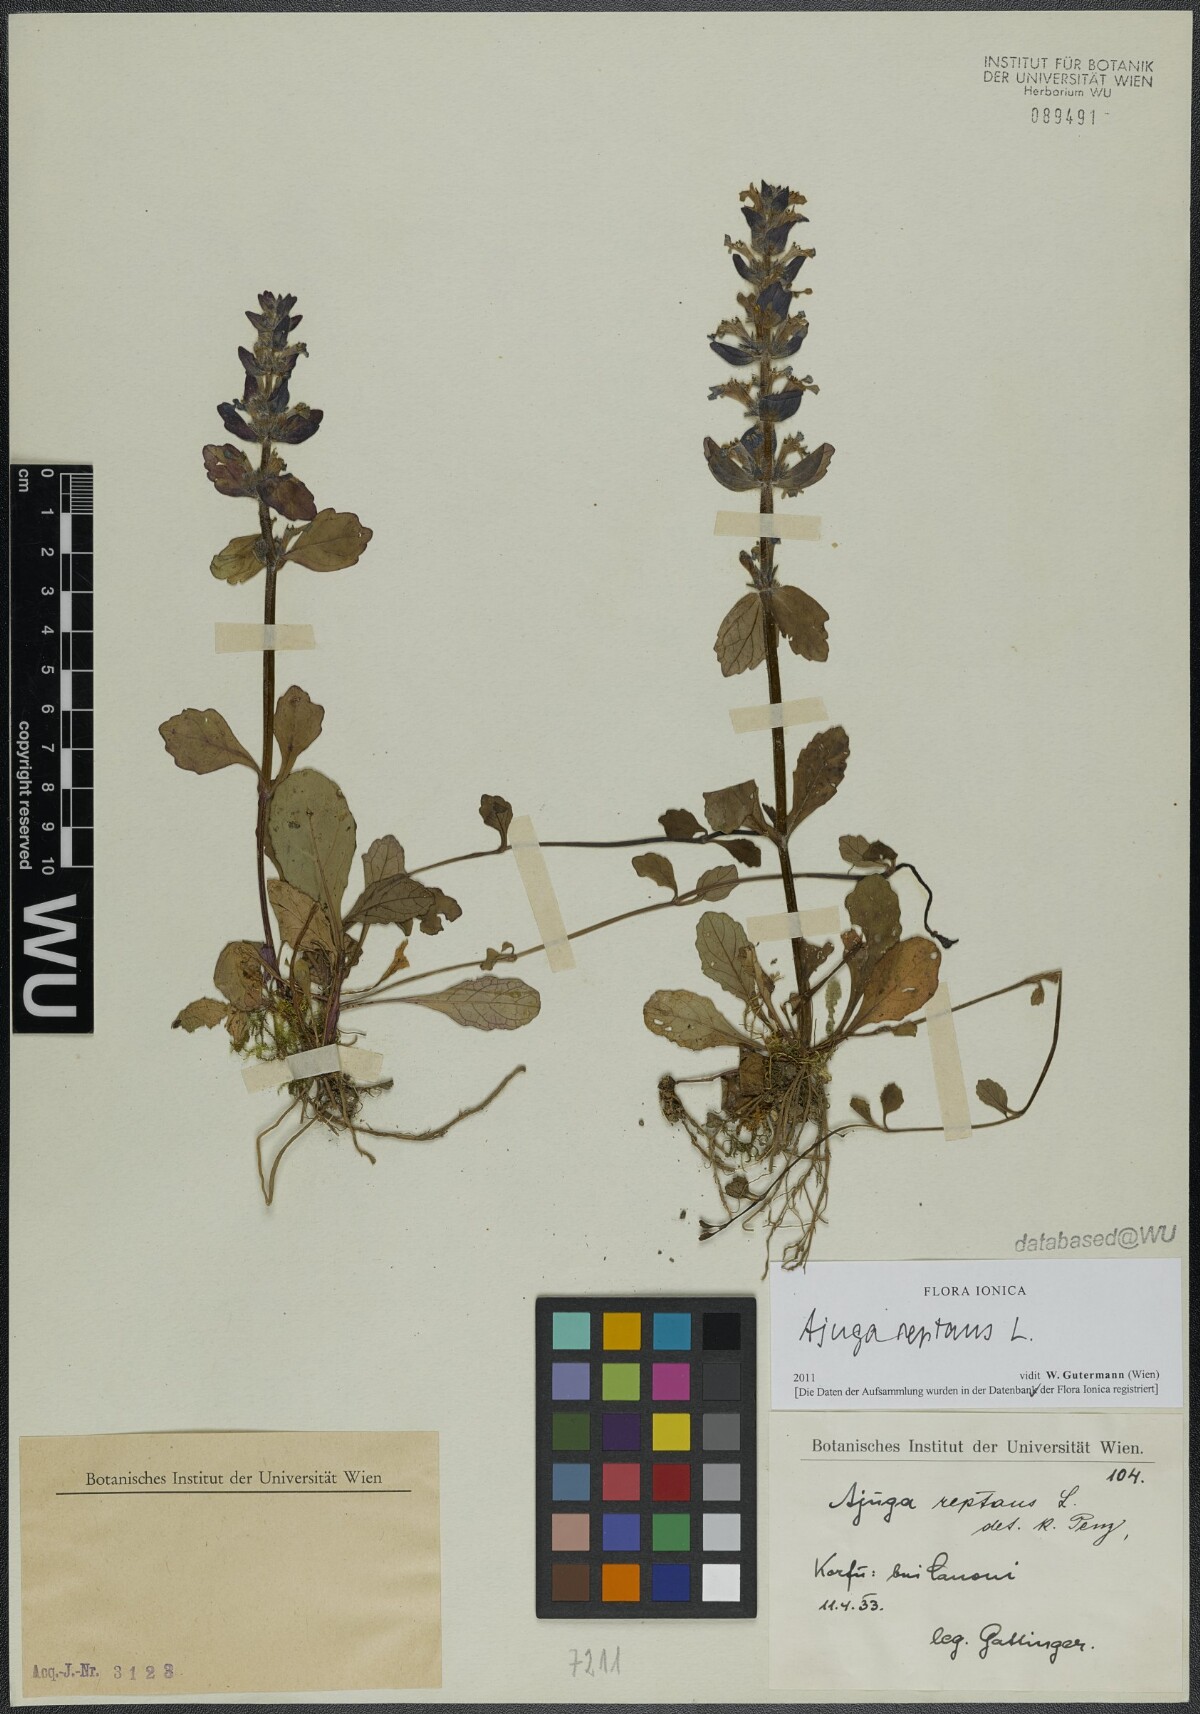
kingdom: Plantae
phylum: Tracheophyta
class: Magnoliopsida
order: Lamiales
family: Lamiaceae
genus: Ajuga
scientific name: Ajuga reptans
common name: Bugle
